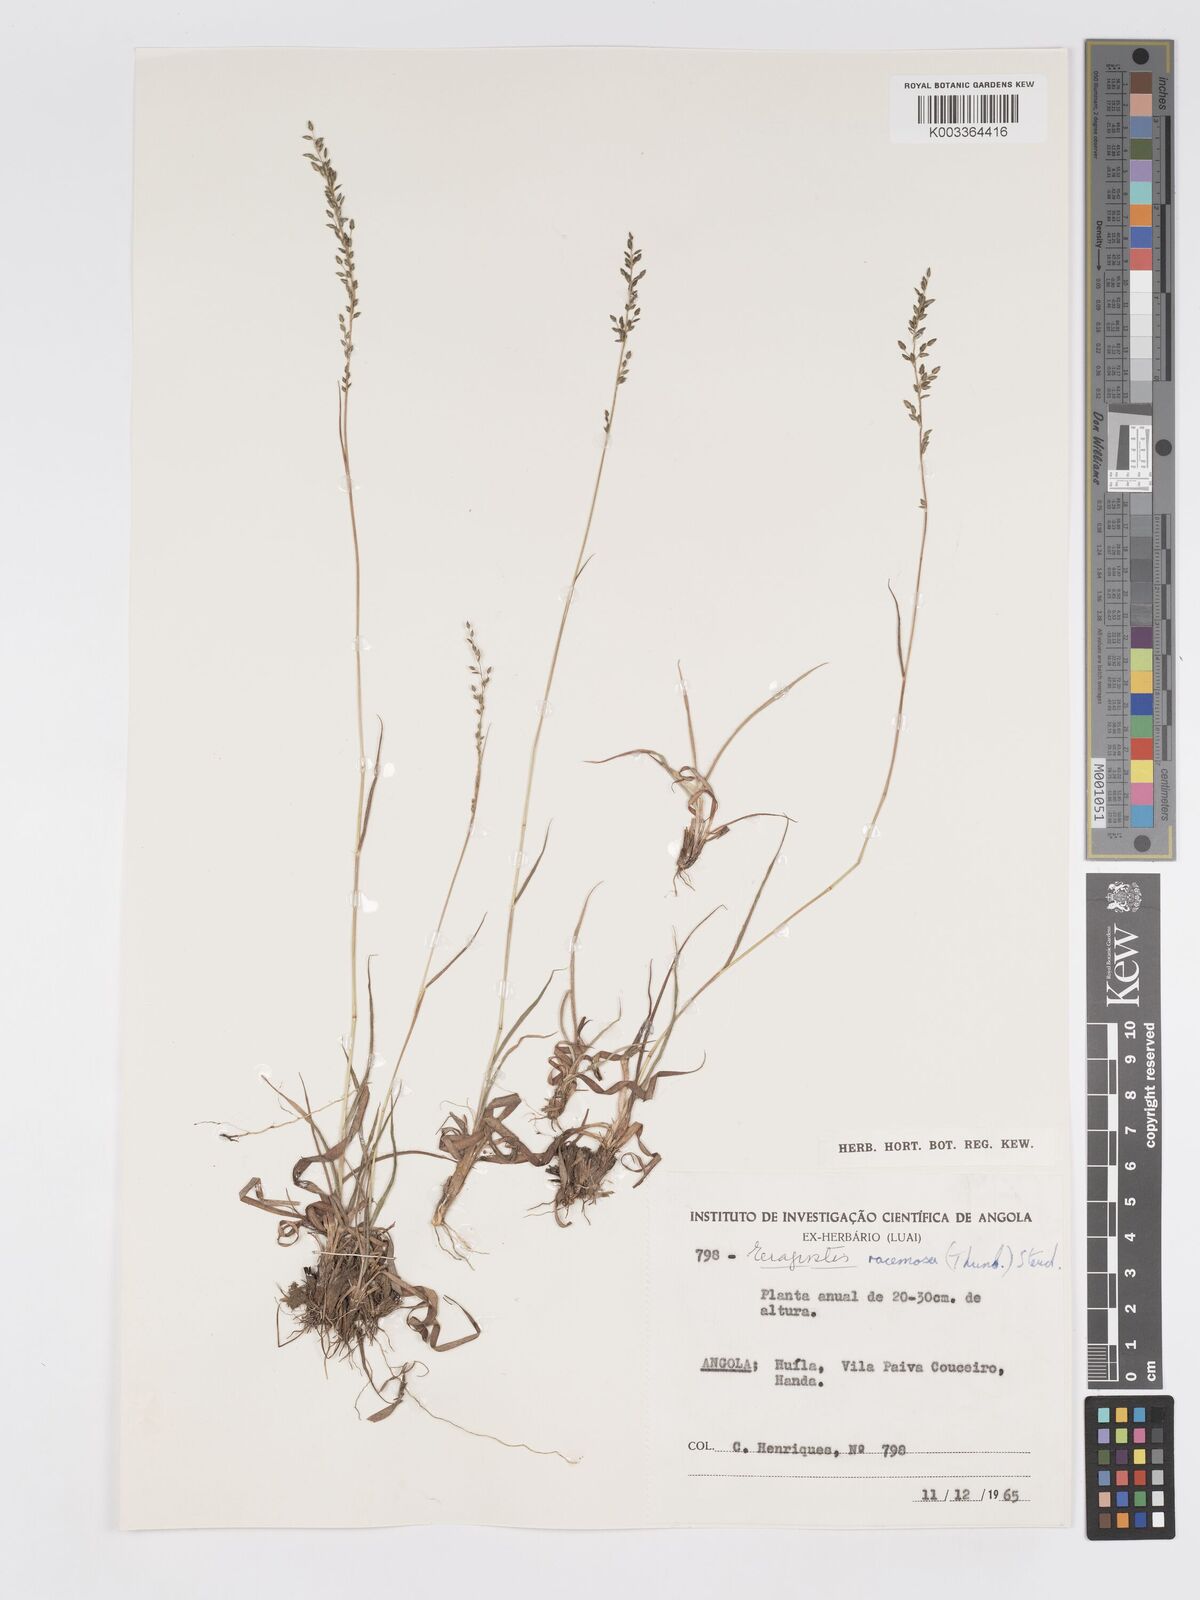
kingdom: Plantae
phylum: Tracheophyta
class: Liliopsida
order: Poales
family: Poaceae
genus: Eragrostis
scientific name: Eragrostis racemosa
